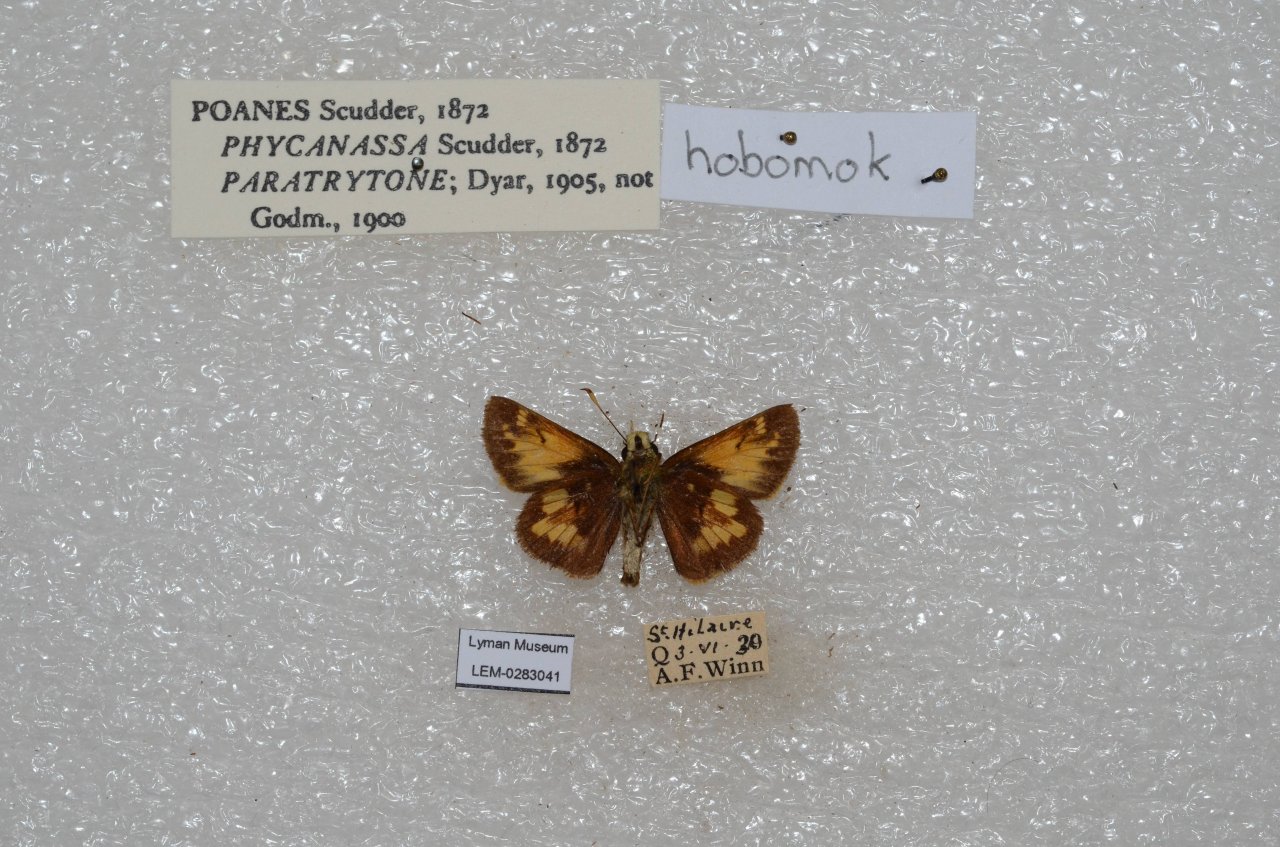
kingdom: Animalia
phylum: Arthropoda
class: Insecta
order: Lepidoptera
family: Hesperiidae
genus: Lon
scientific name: Lon hobomok
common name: Hobomok Skipper
